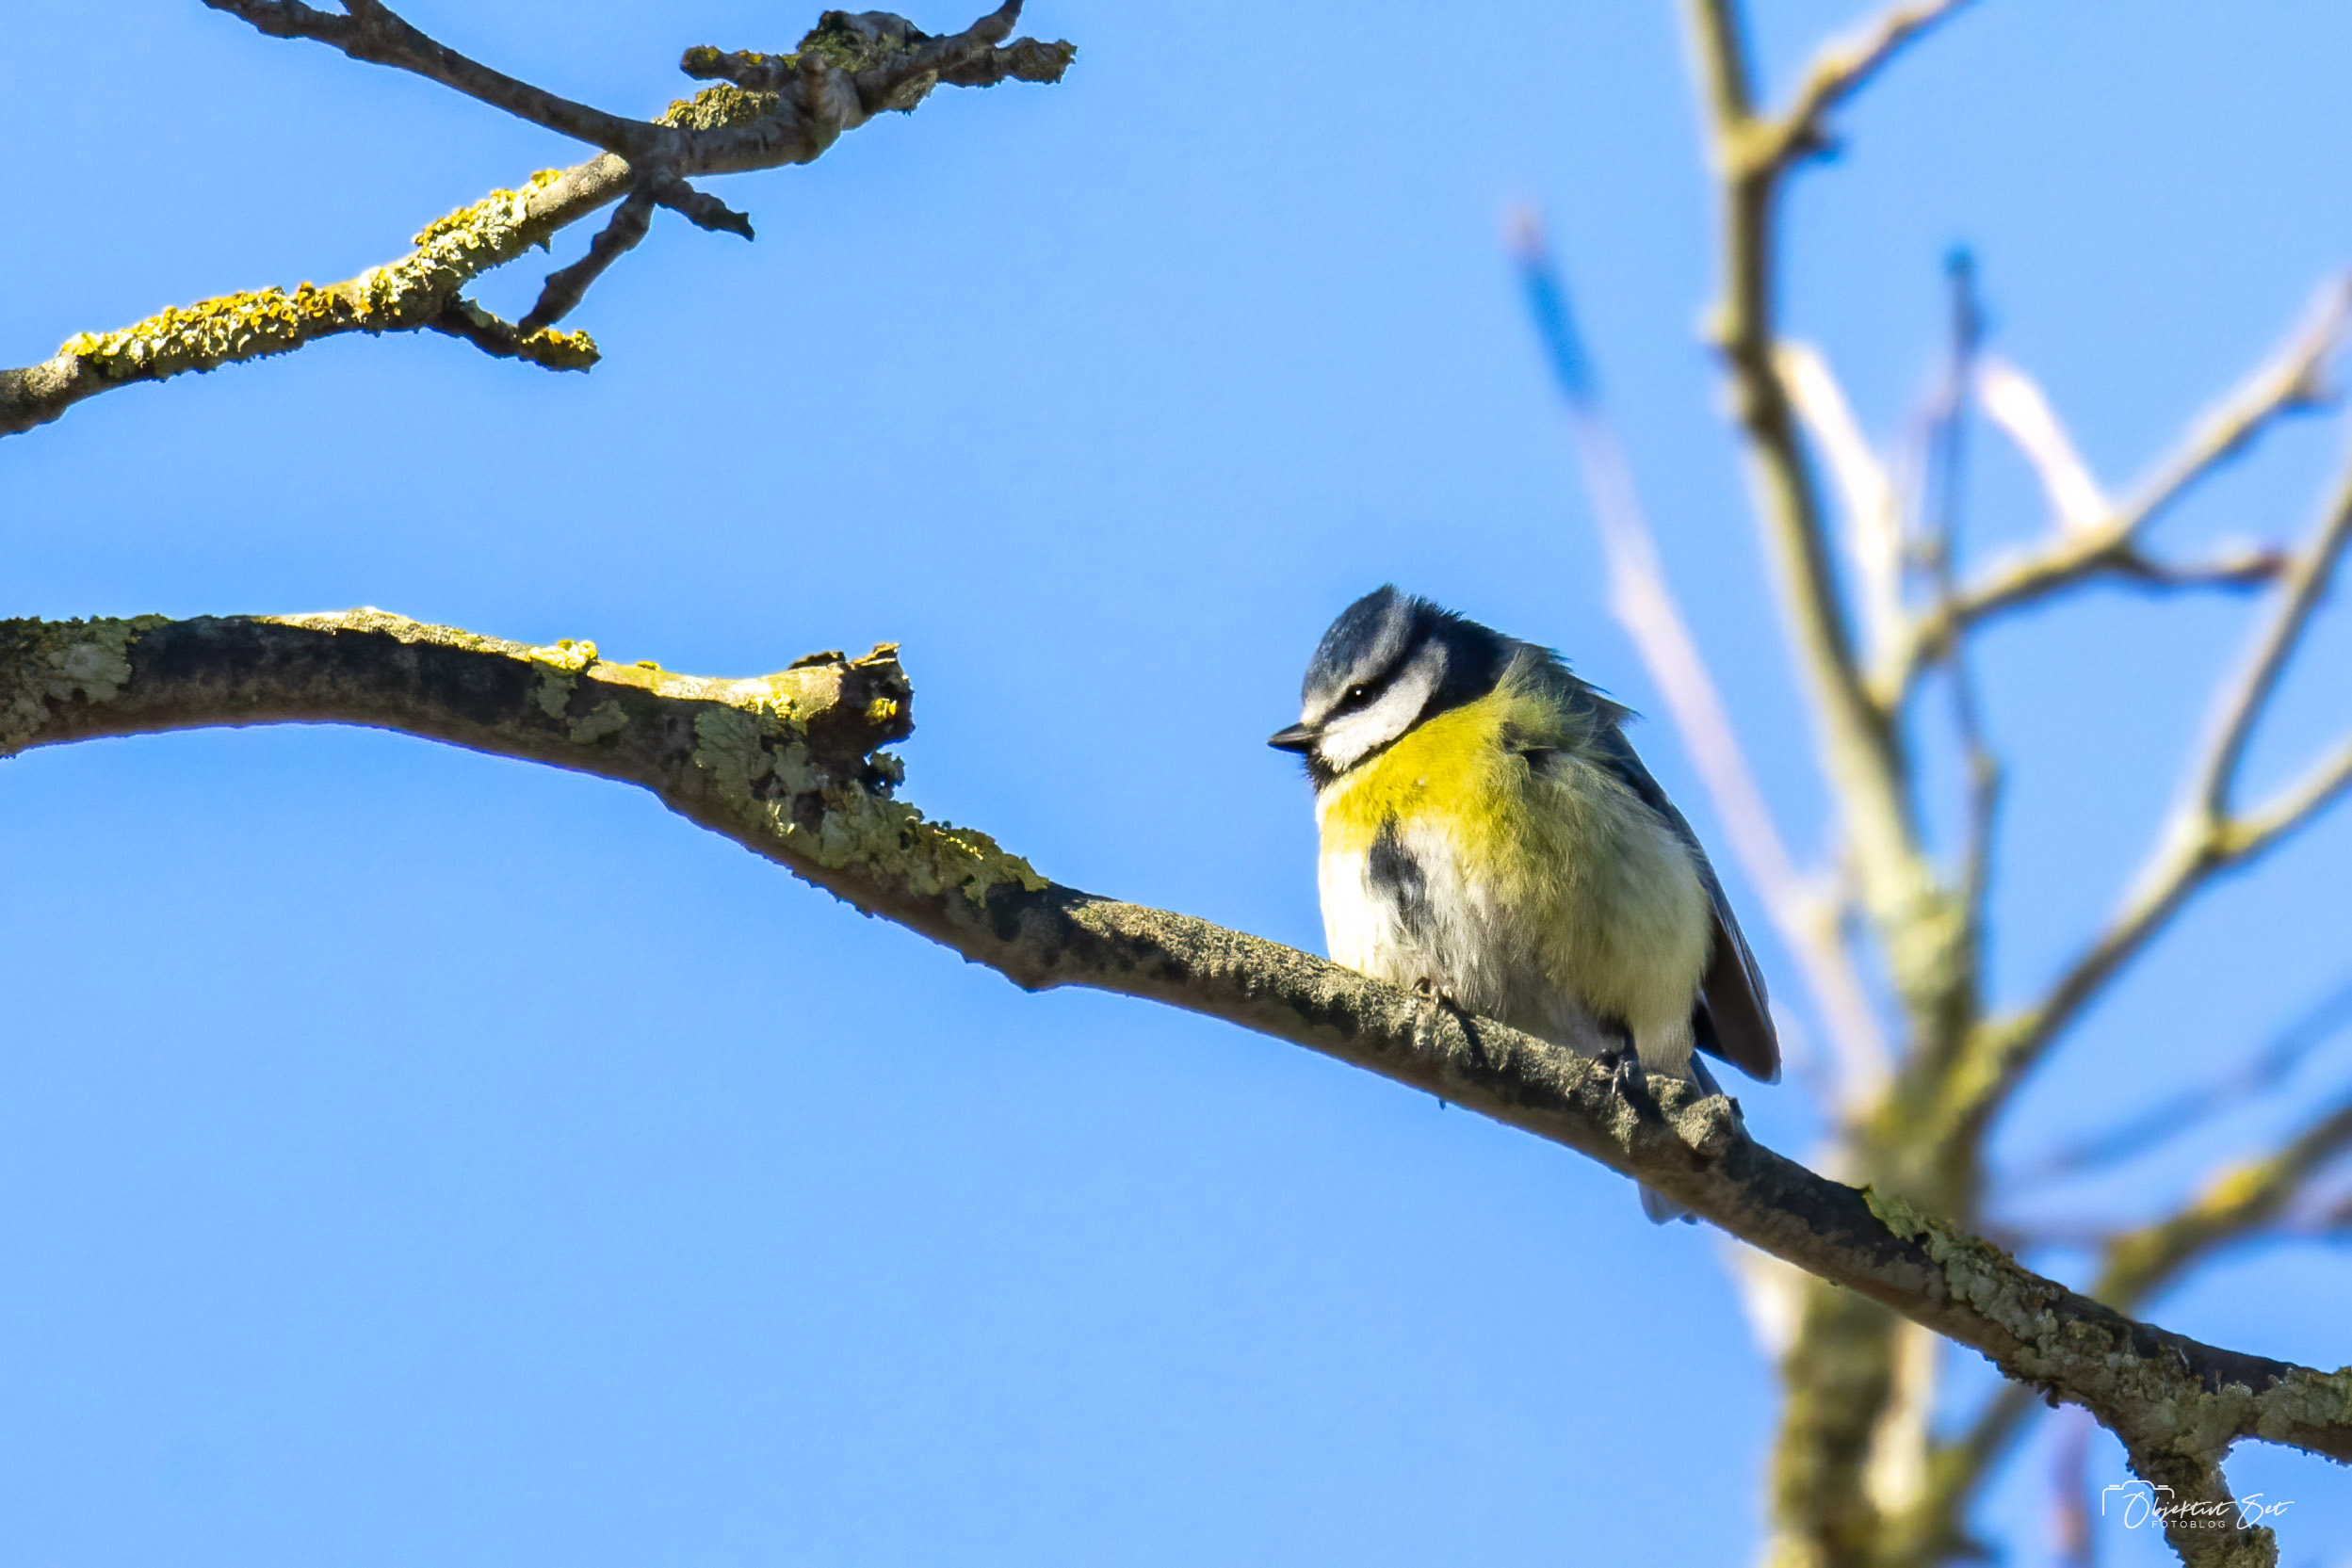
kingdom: Animalia
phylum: Chordata
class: Aves
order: Passeriformes
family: Paridae
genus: Cyanistes
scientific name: Cyanistes caeruleus
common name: Blåmejse
